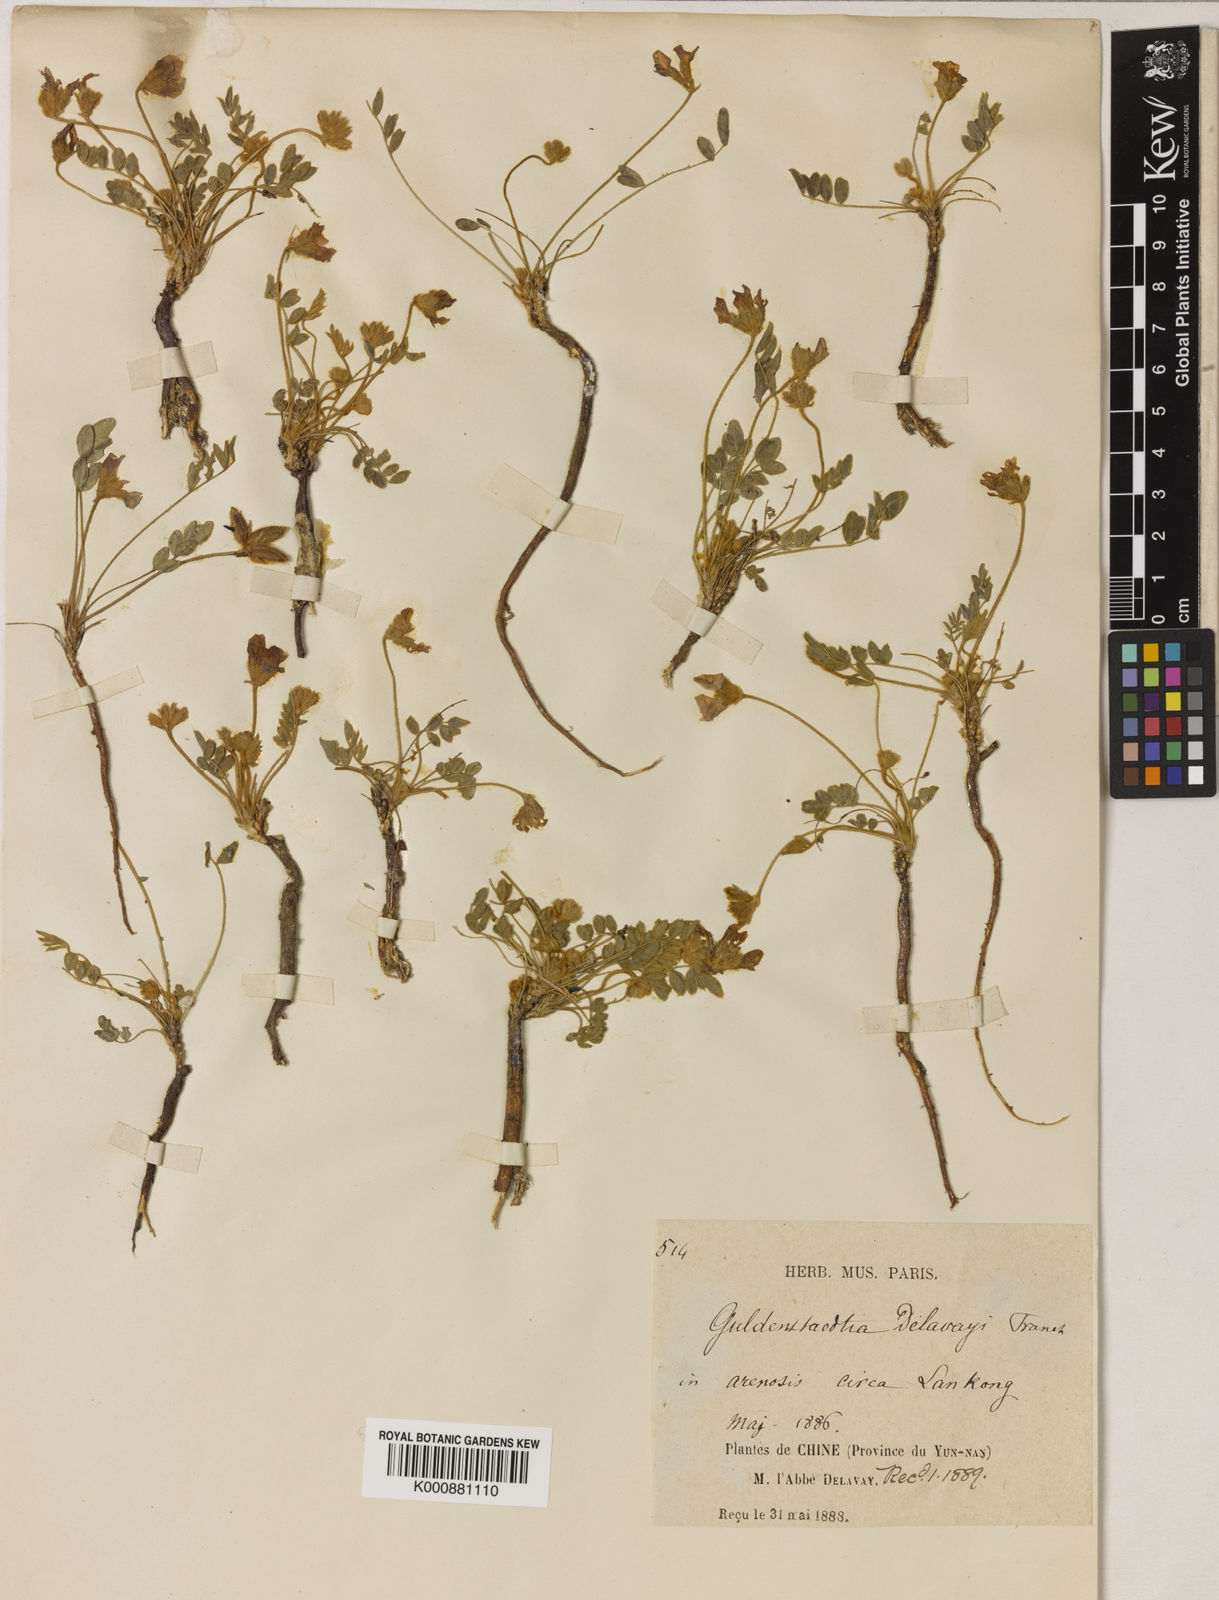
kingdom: Plantae
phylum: Tracheophyta
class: Magnoliopsida
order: Fabales
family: Fabaceae
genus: Gueldenstaedtia
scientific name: Gueldenstaedtia verna
